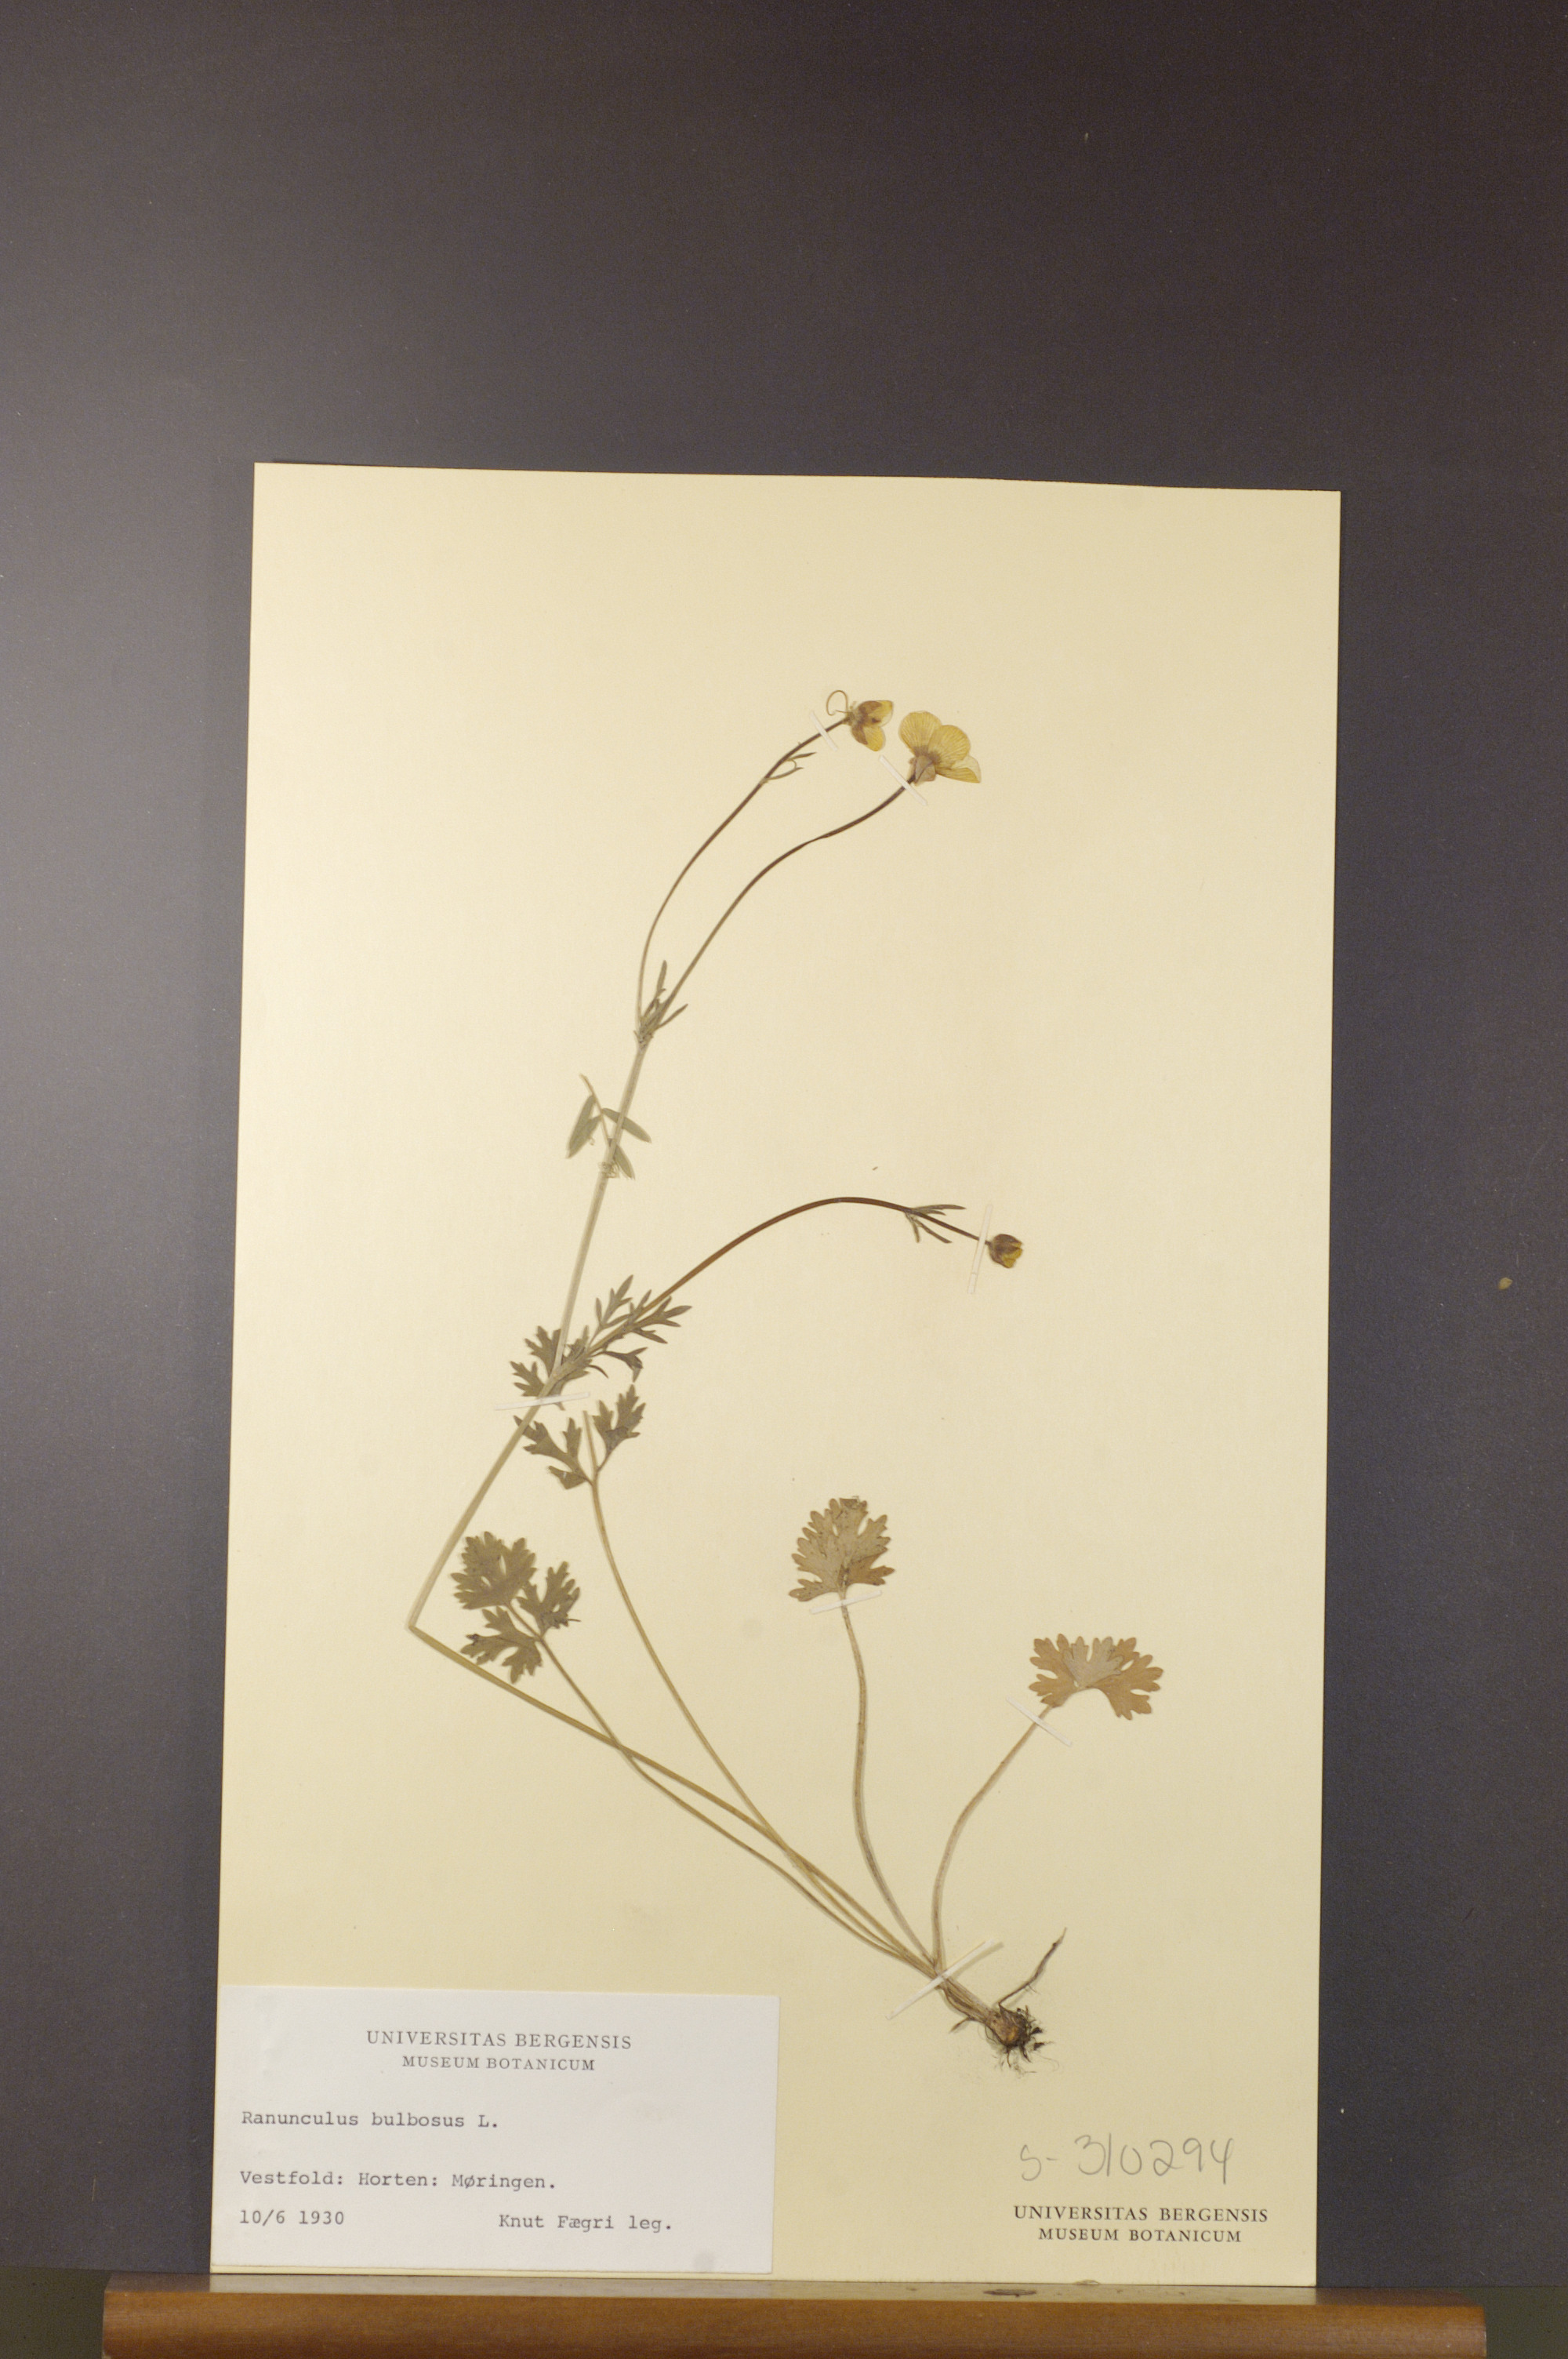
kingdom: Plantae
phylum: Tracheophyta
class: Magnoliopsida
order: Ranunculales
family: Ranunculaceae
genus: Ranunculus
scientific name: Ranunculus bulbosus
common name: Bulbous buttercup
